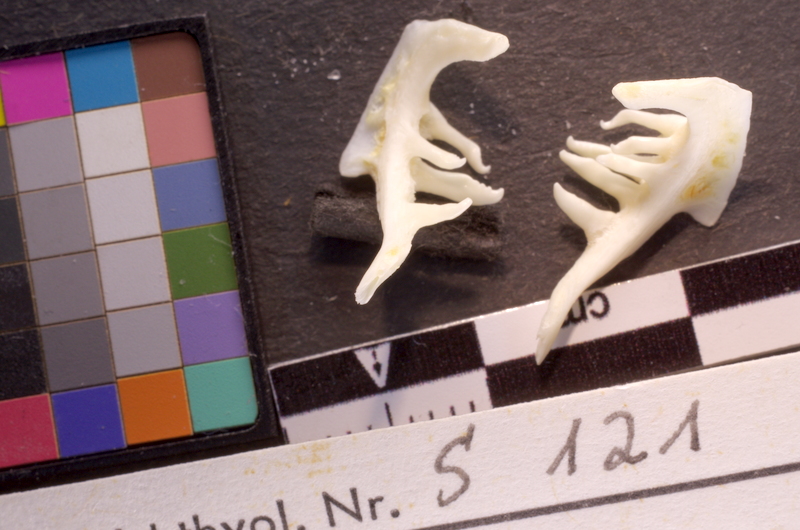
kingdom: Animalia
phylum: Chordata
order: Cypriniformes
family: Cyprinidae
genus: Squalius
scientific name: Squalius cephalus
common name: Chub
